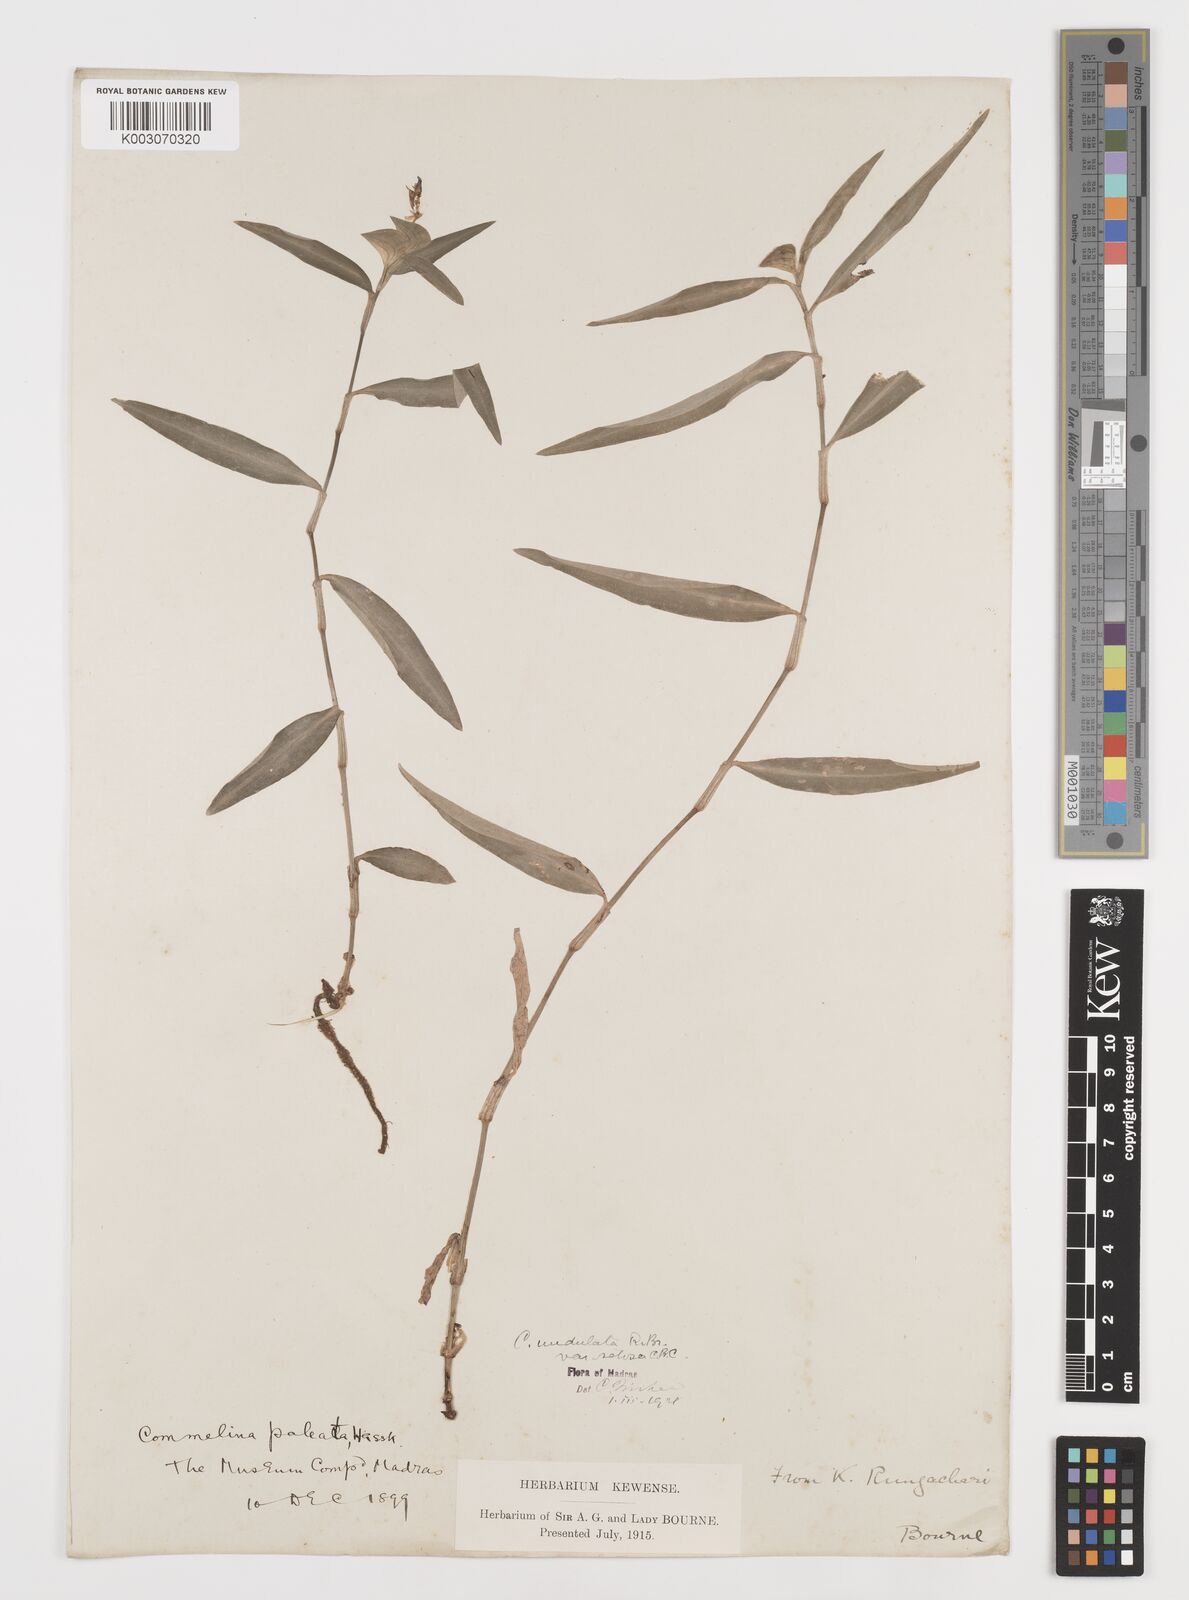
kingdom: Plantae
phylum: Tracheophyta
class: Liliopsida
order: Commelinales
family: Commelinaceae
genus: Commelina
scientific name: Commelina chamissonis
